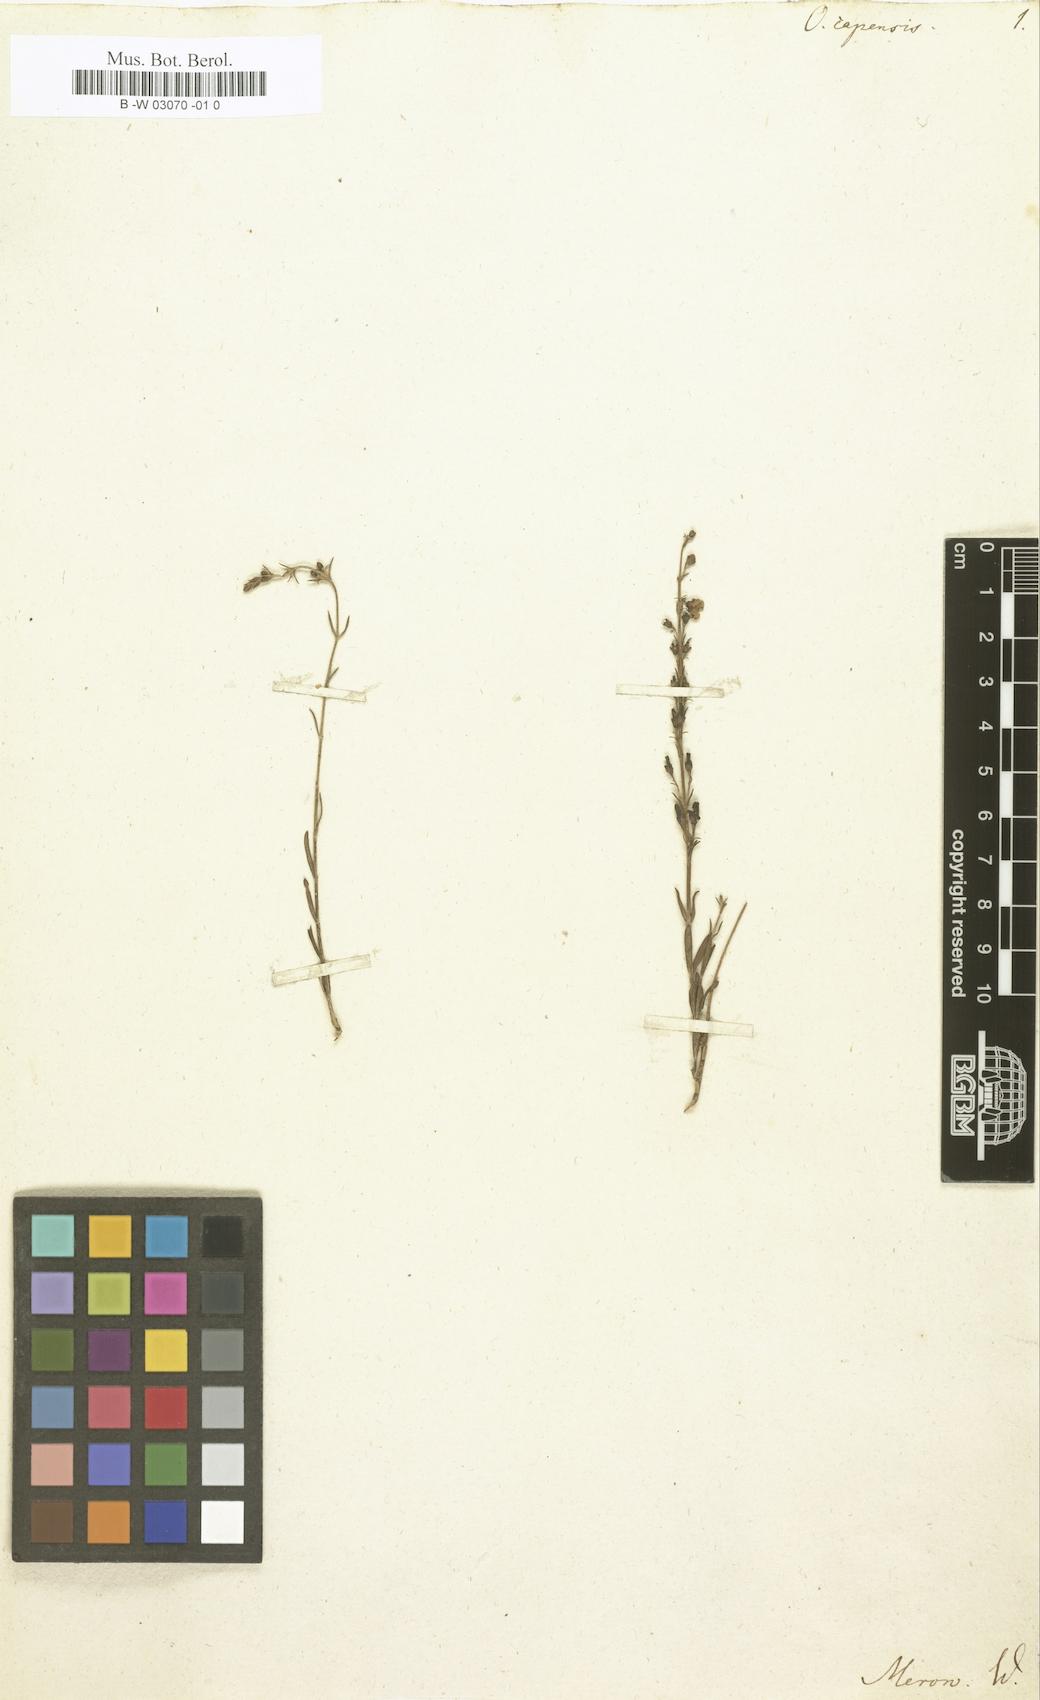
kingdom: Plantae
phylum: Tracheophyta
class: Magnoliopsida
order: Gentianales
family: Rubiaceae
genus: Oldenlandia
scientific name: Oldenlandia capensis
